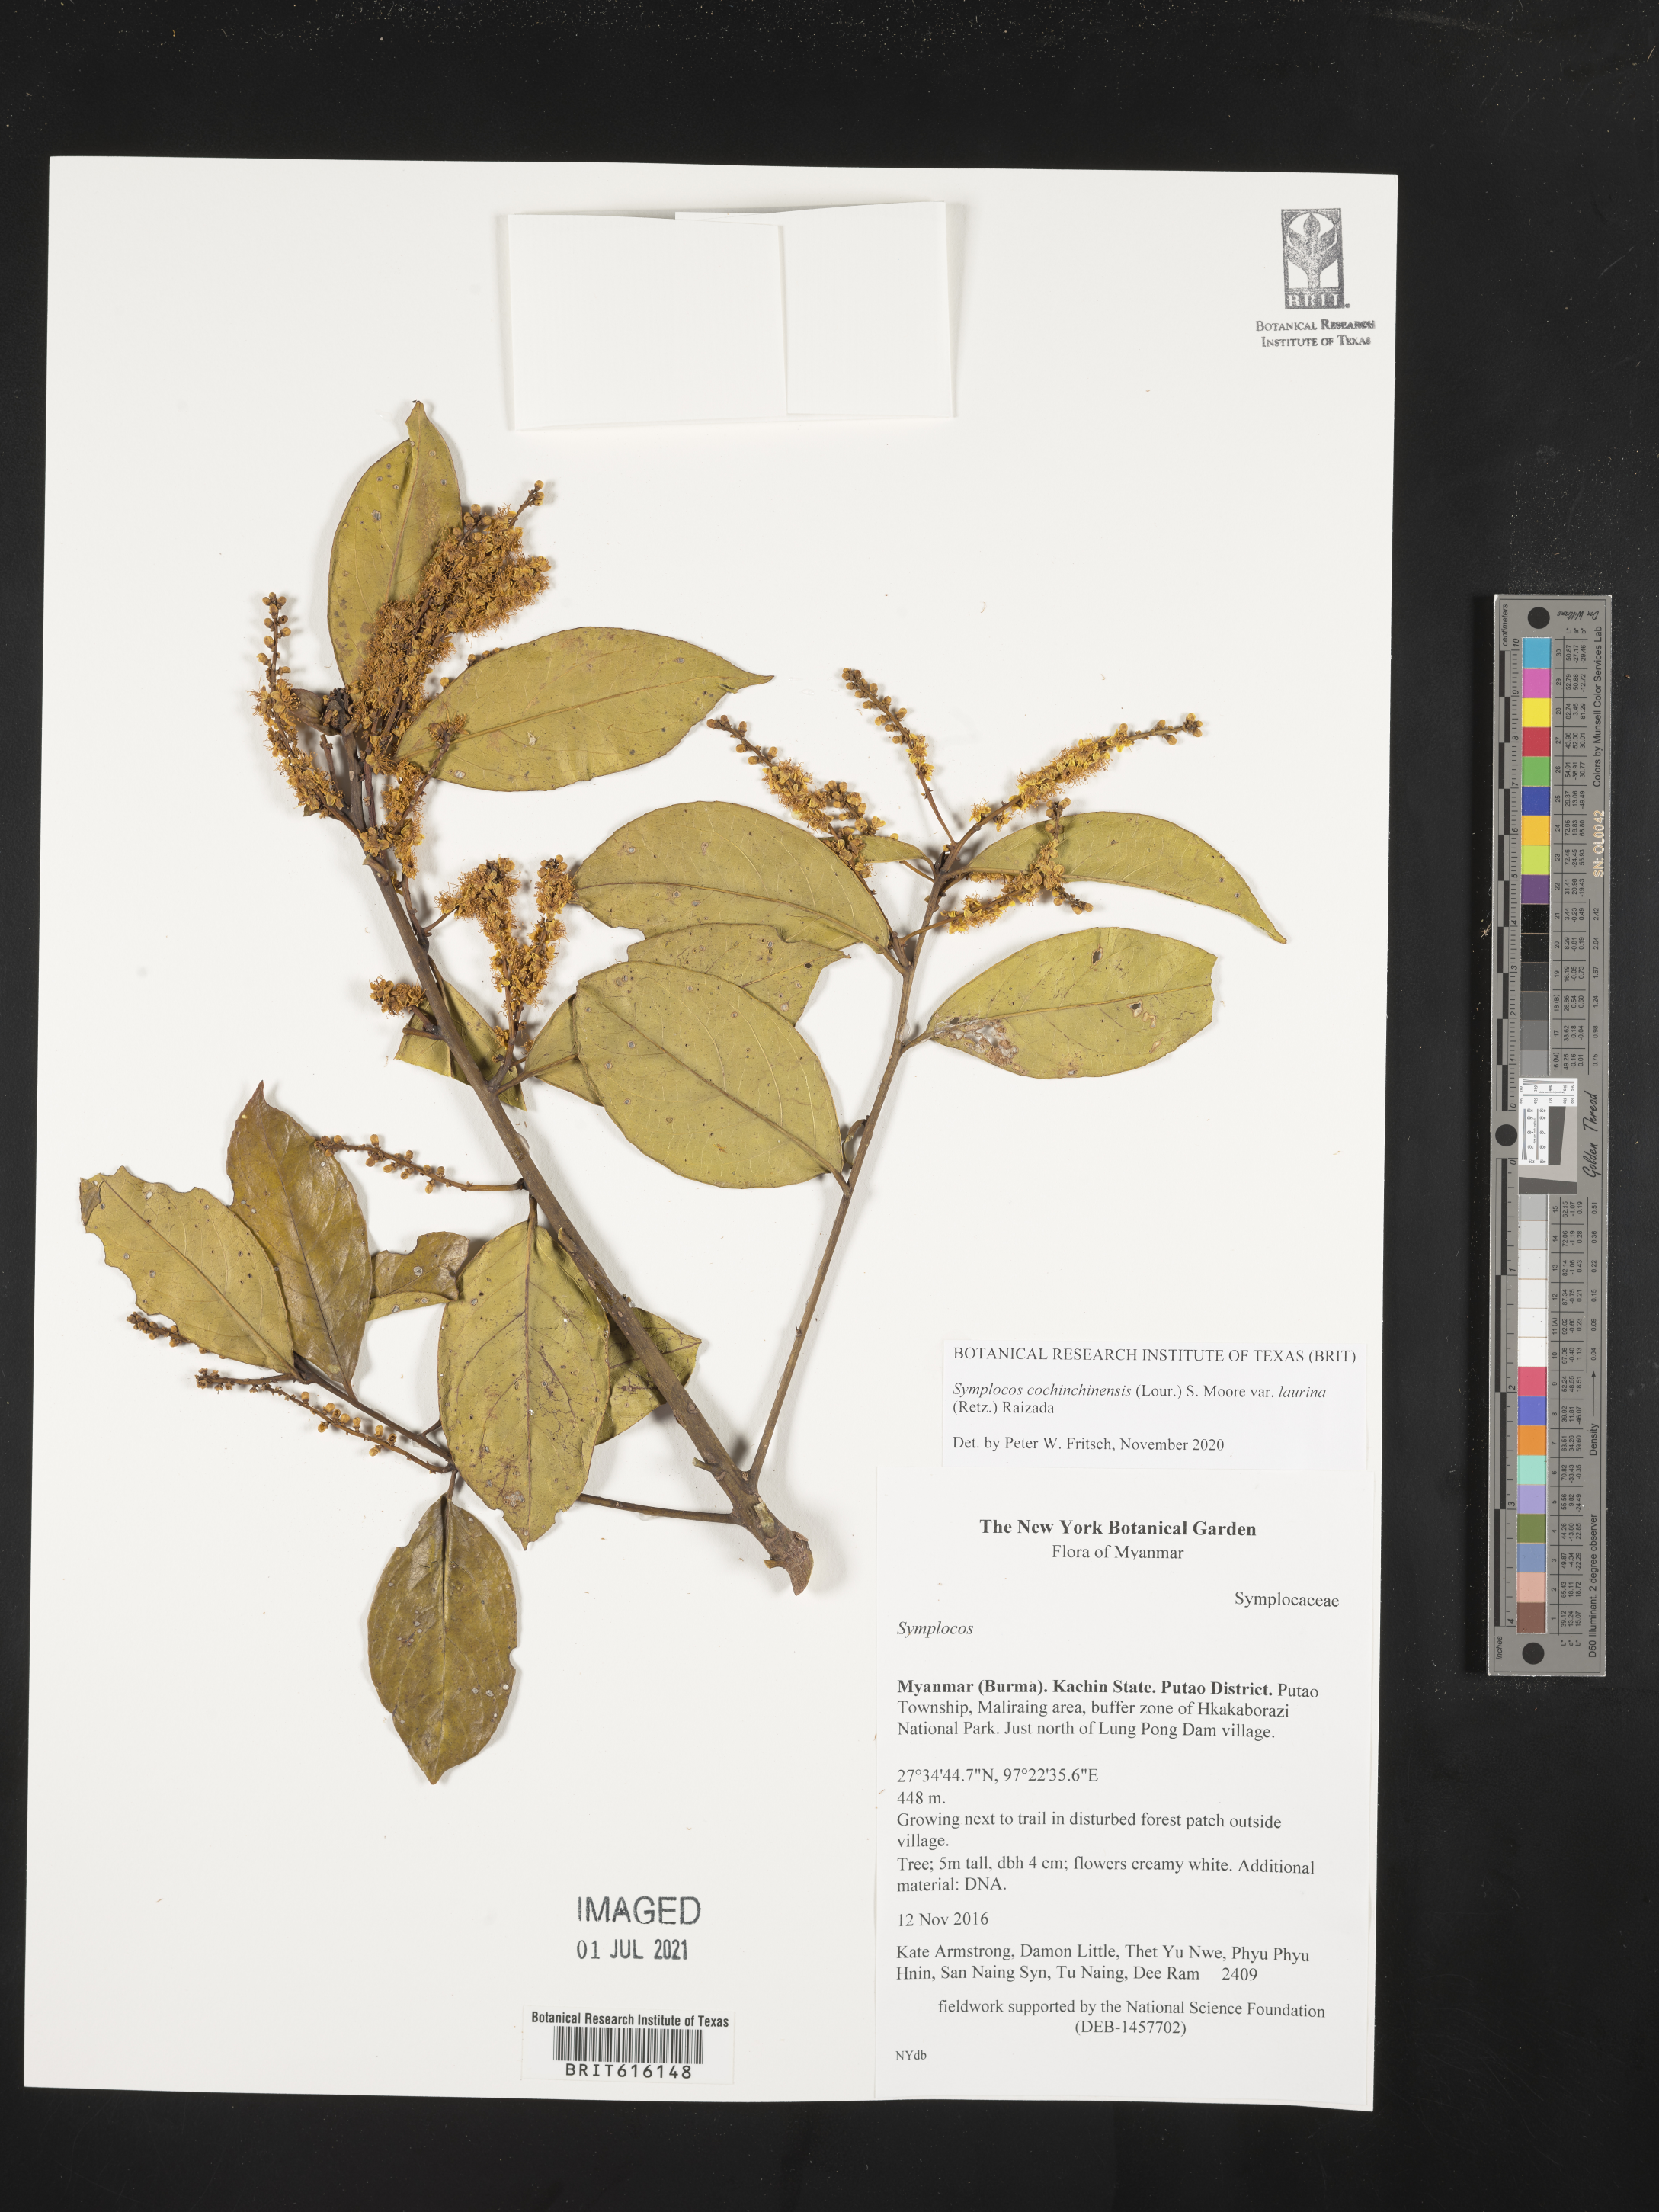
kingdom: Plantae
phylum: Tracheophyta
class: Magnoliopsida
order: Ericales
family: Symplocaceae
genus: Symplocos
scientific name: Symplocos acuminata
